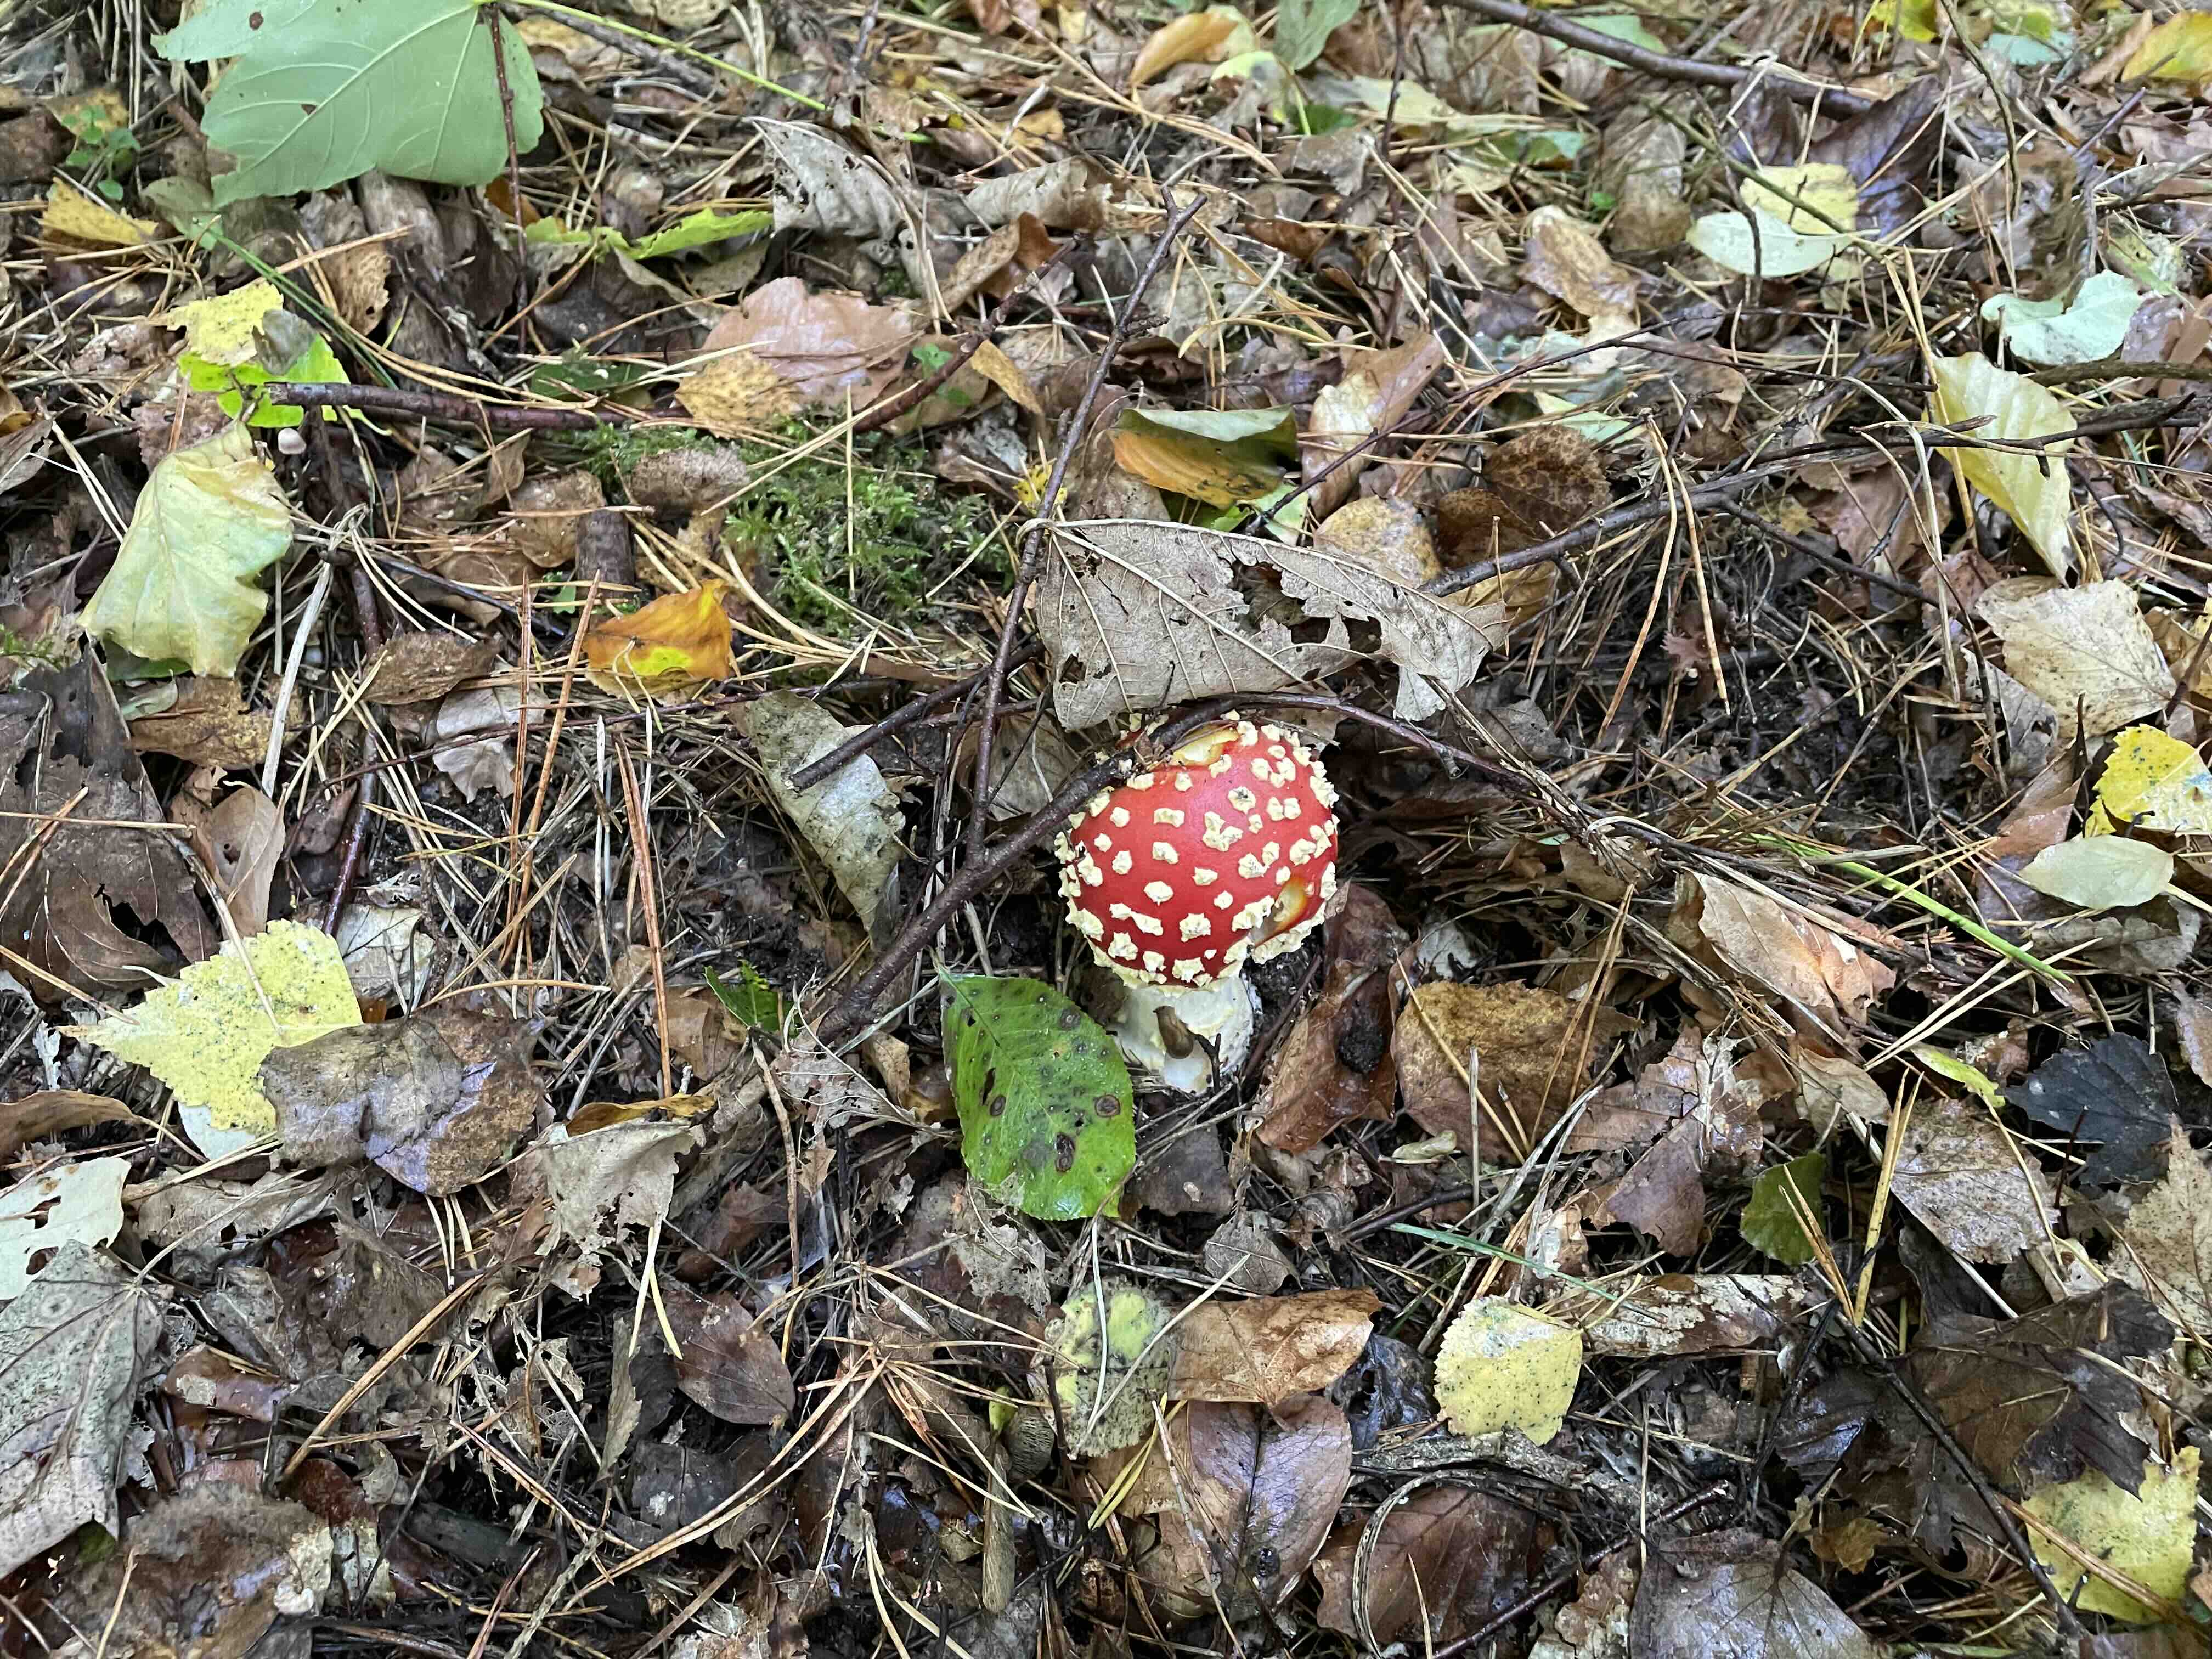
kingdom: Fungi
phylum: Basidiomycota
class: Agaricomycetes
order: Agaricales
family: Amanitaceae
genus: Amanita
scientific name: Amanita muscaria
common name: rød fluesvamp
